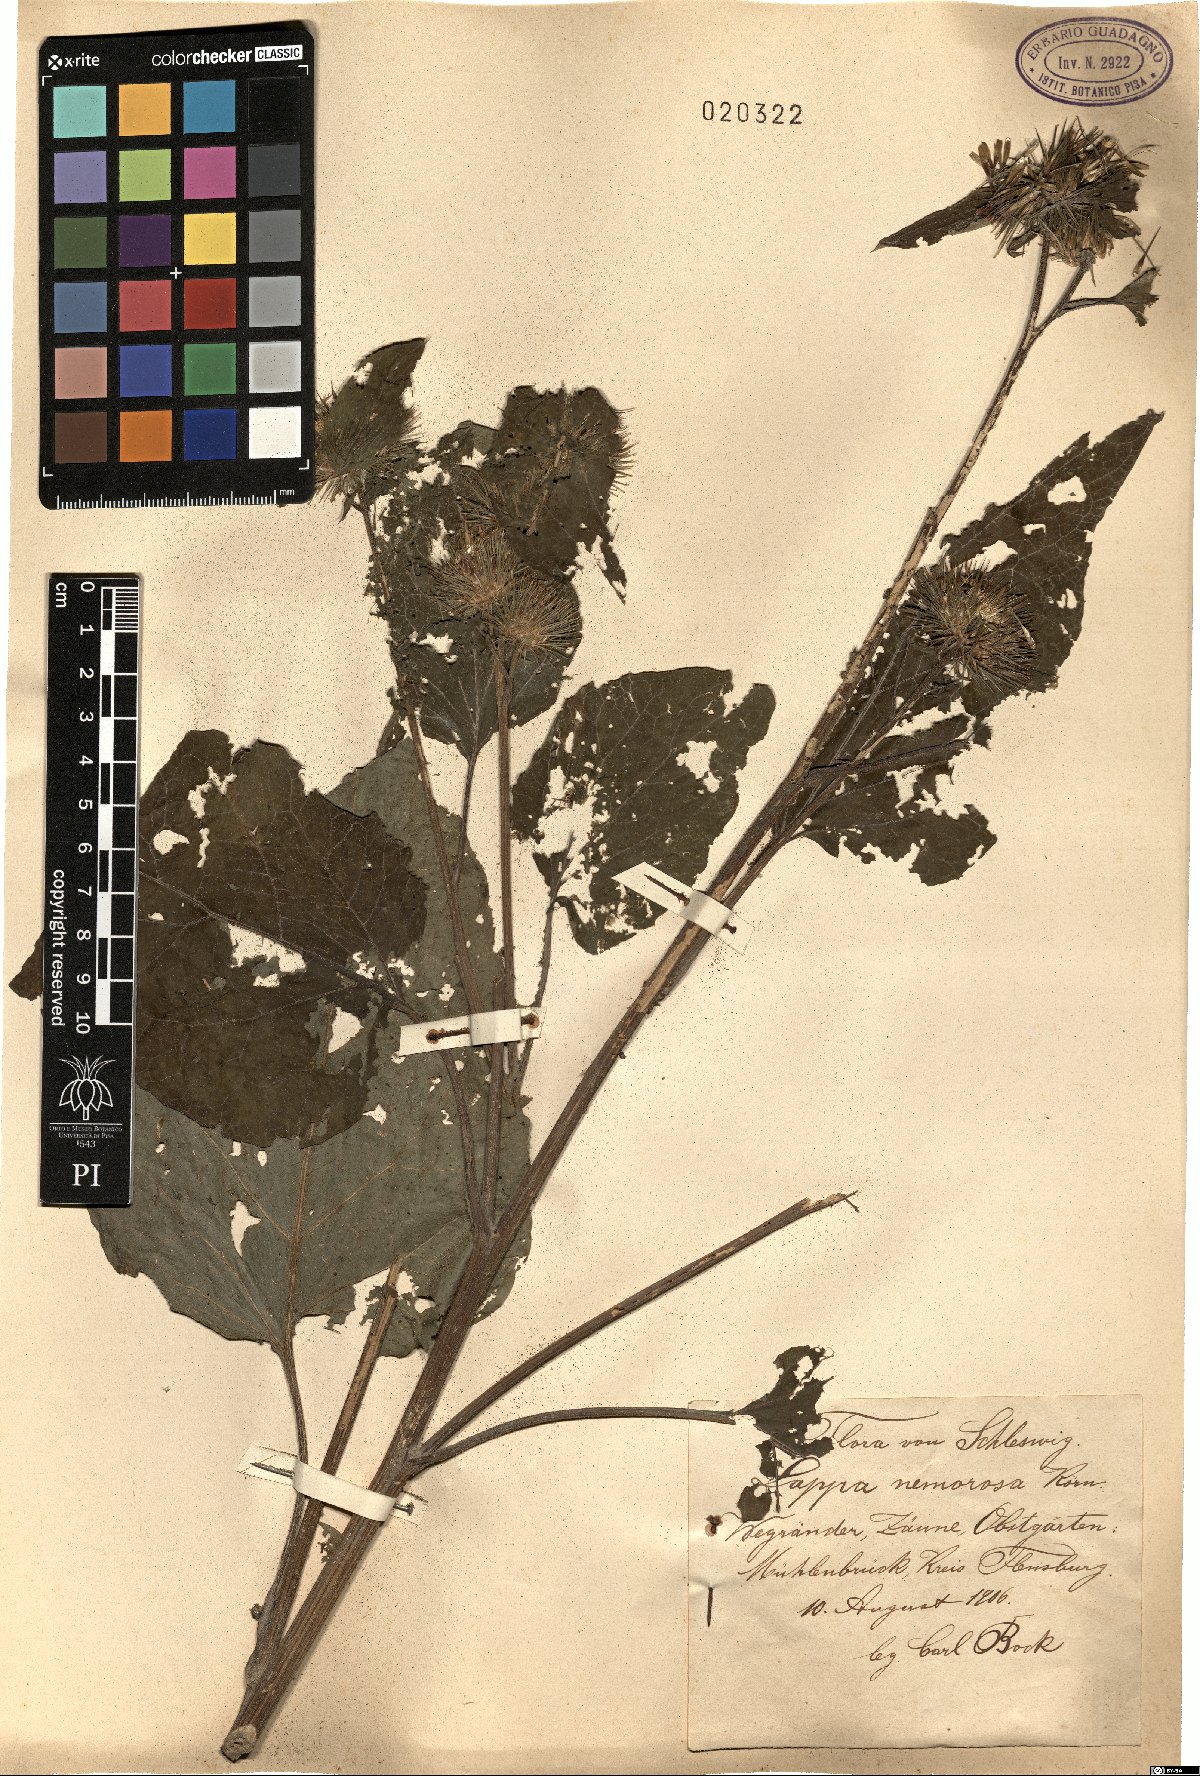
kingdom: Plantae
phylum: Tracheophyta
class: Magnoliopsida
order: Asterales
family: Asteraceae
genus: Arctium
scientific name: Arctium
